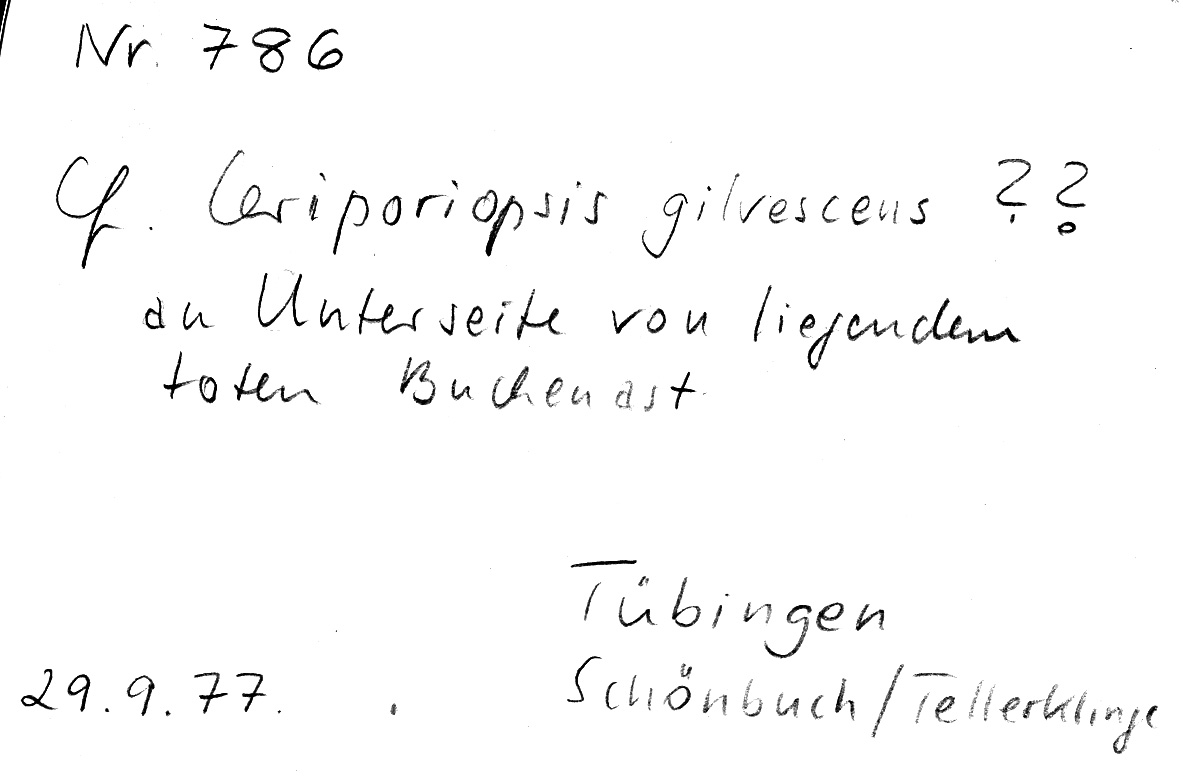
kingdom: Plantae
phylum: Tracheophyta
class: Magnoliopsida
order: Fagales
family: Fagaceae
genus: Fagus
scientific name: Fagus sylvatica
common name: Beech
